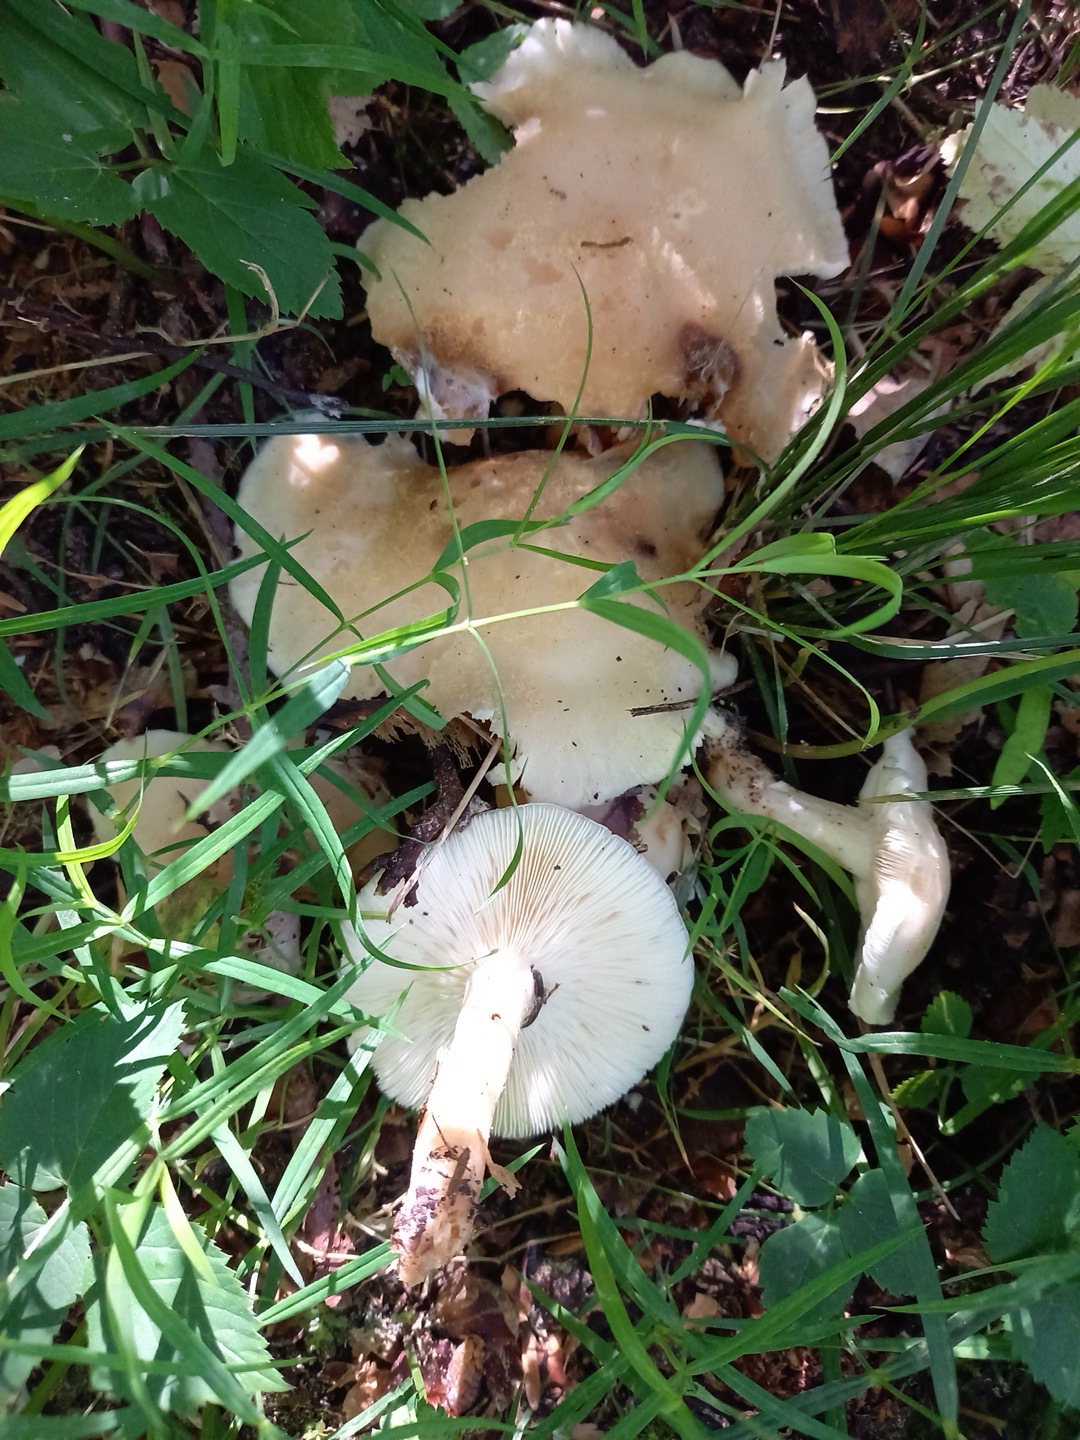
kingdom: Fungi
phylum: Basidiomycota
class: Agaricomycetes
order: Agaricales
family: Lyophyllaceae
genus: Calocybe
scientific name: Calocybe gambosa
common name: vårmusseron
